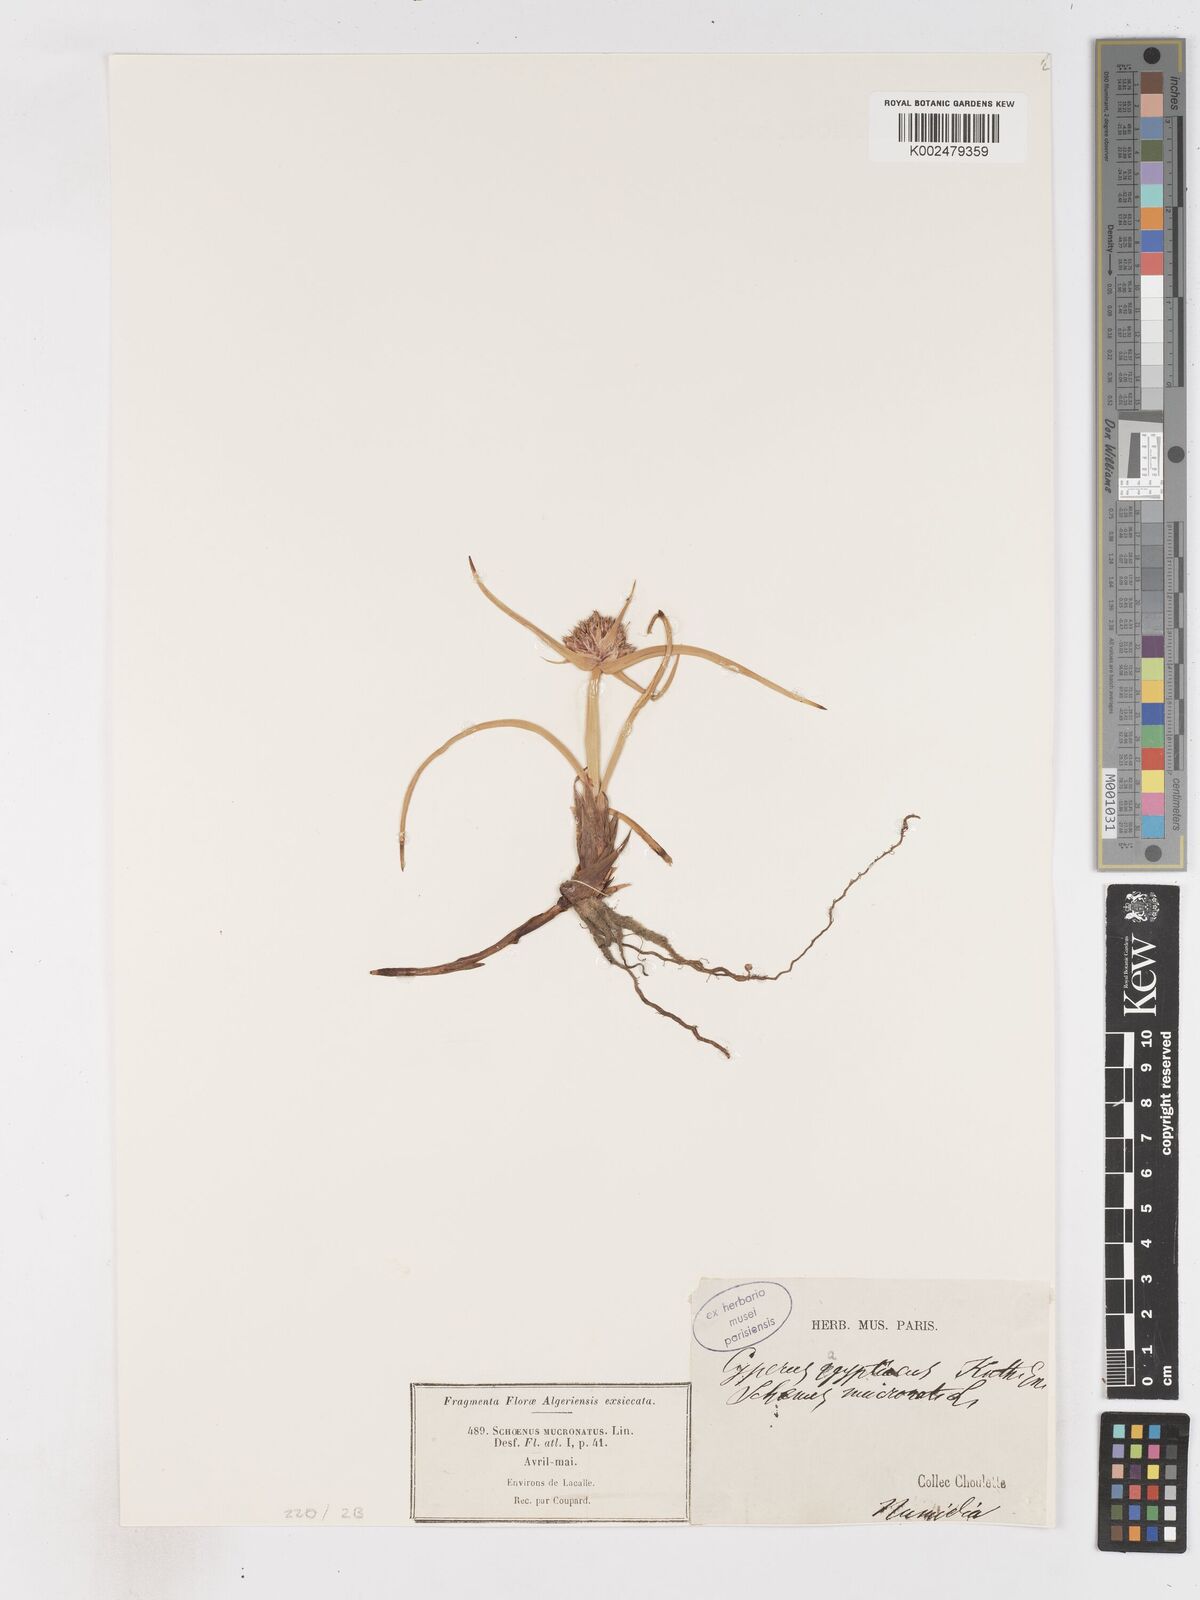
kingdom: Plantae
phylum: Tracheophyta
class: Liliopsida
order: Poales
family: Cyperaceae
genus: Cyperus
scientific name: Cyperus capitatus
